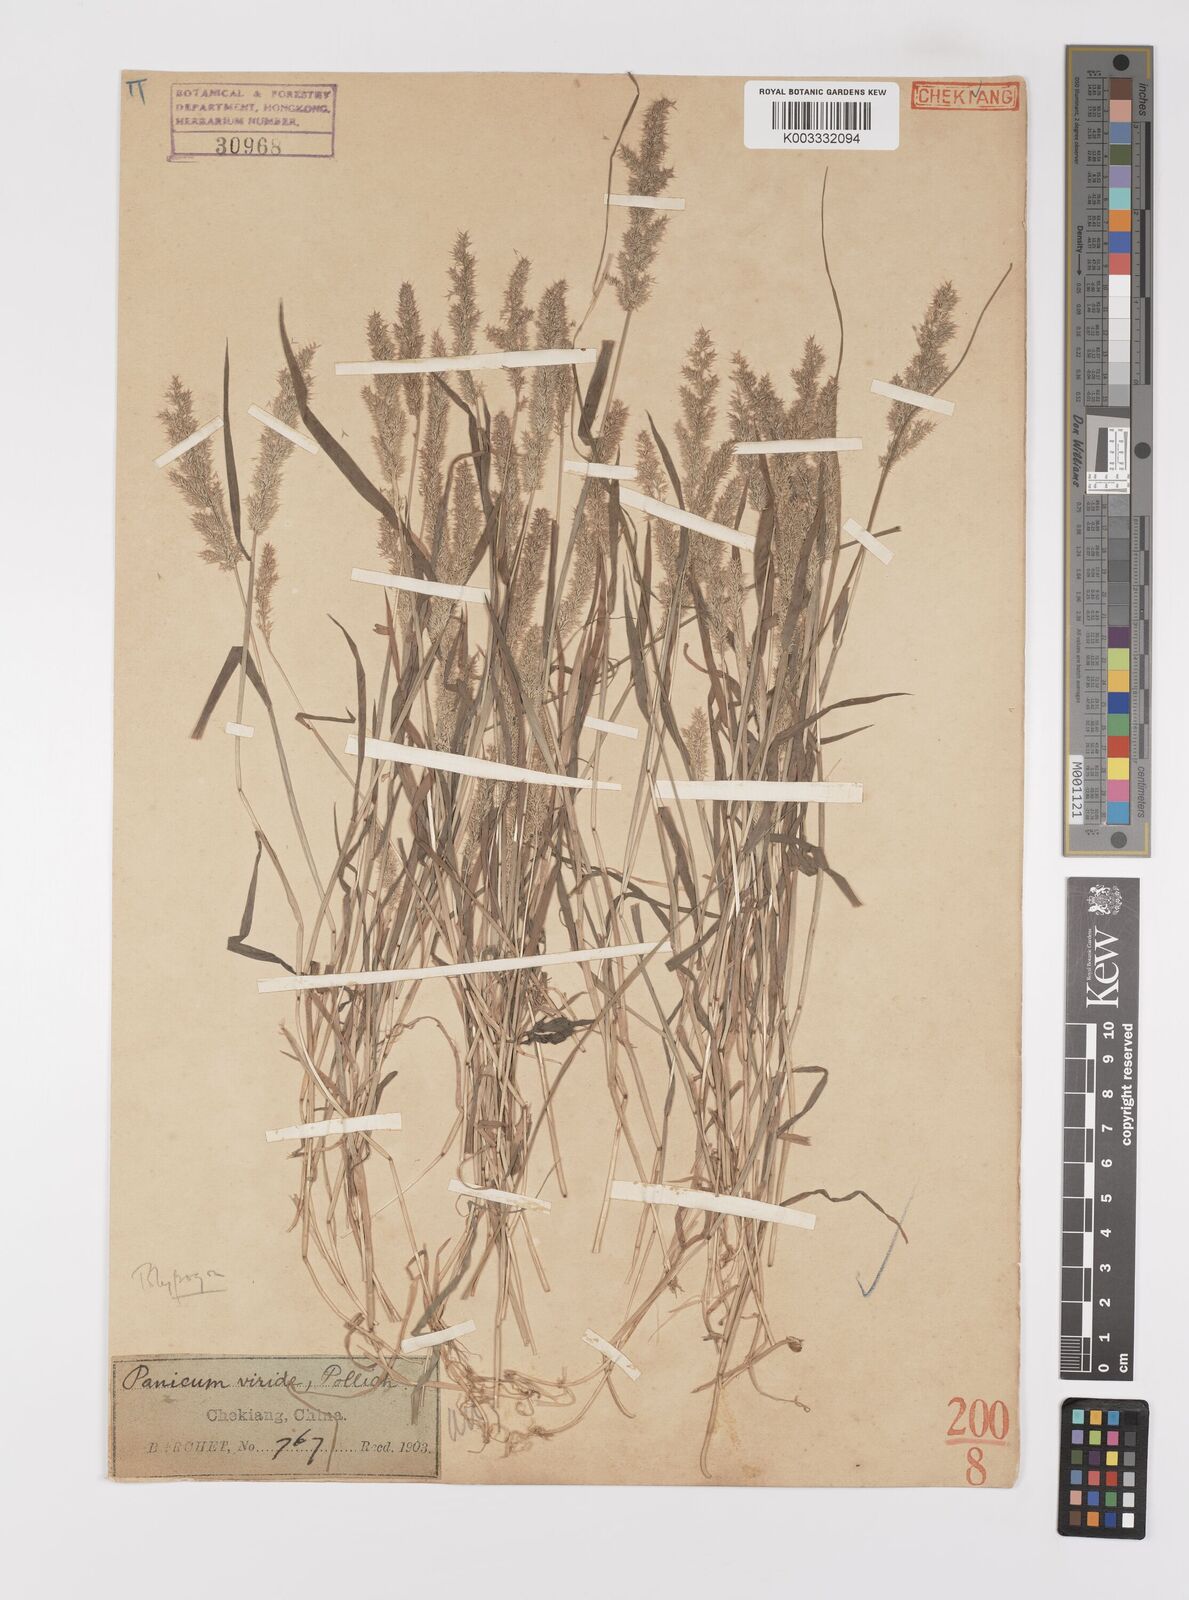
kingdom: Plantae
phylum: Tracheophyta
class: Liliopsida
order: Poales
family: Poaceae
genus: Polypogon
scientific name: Polypogon fugax
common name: Asia minor bluegrass
